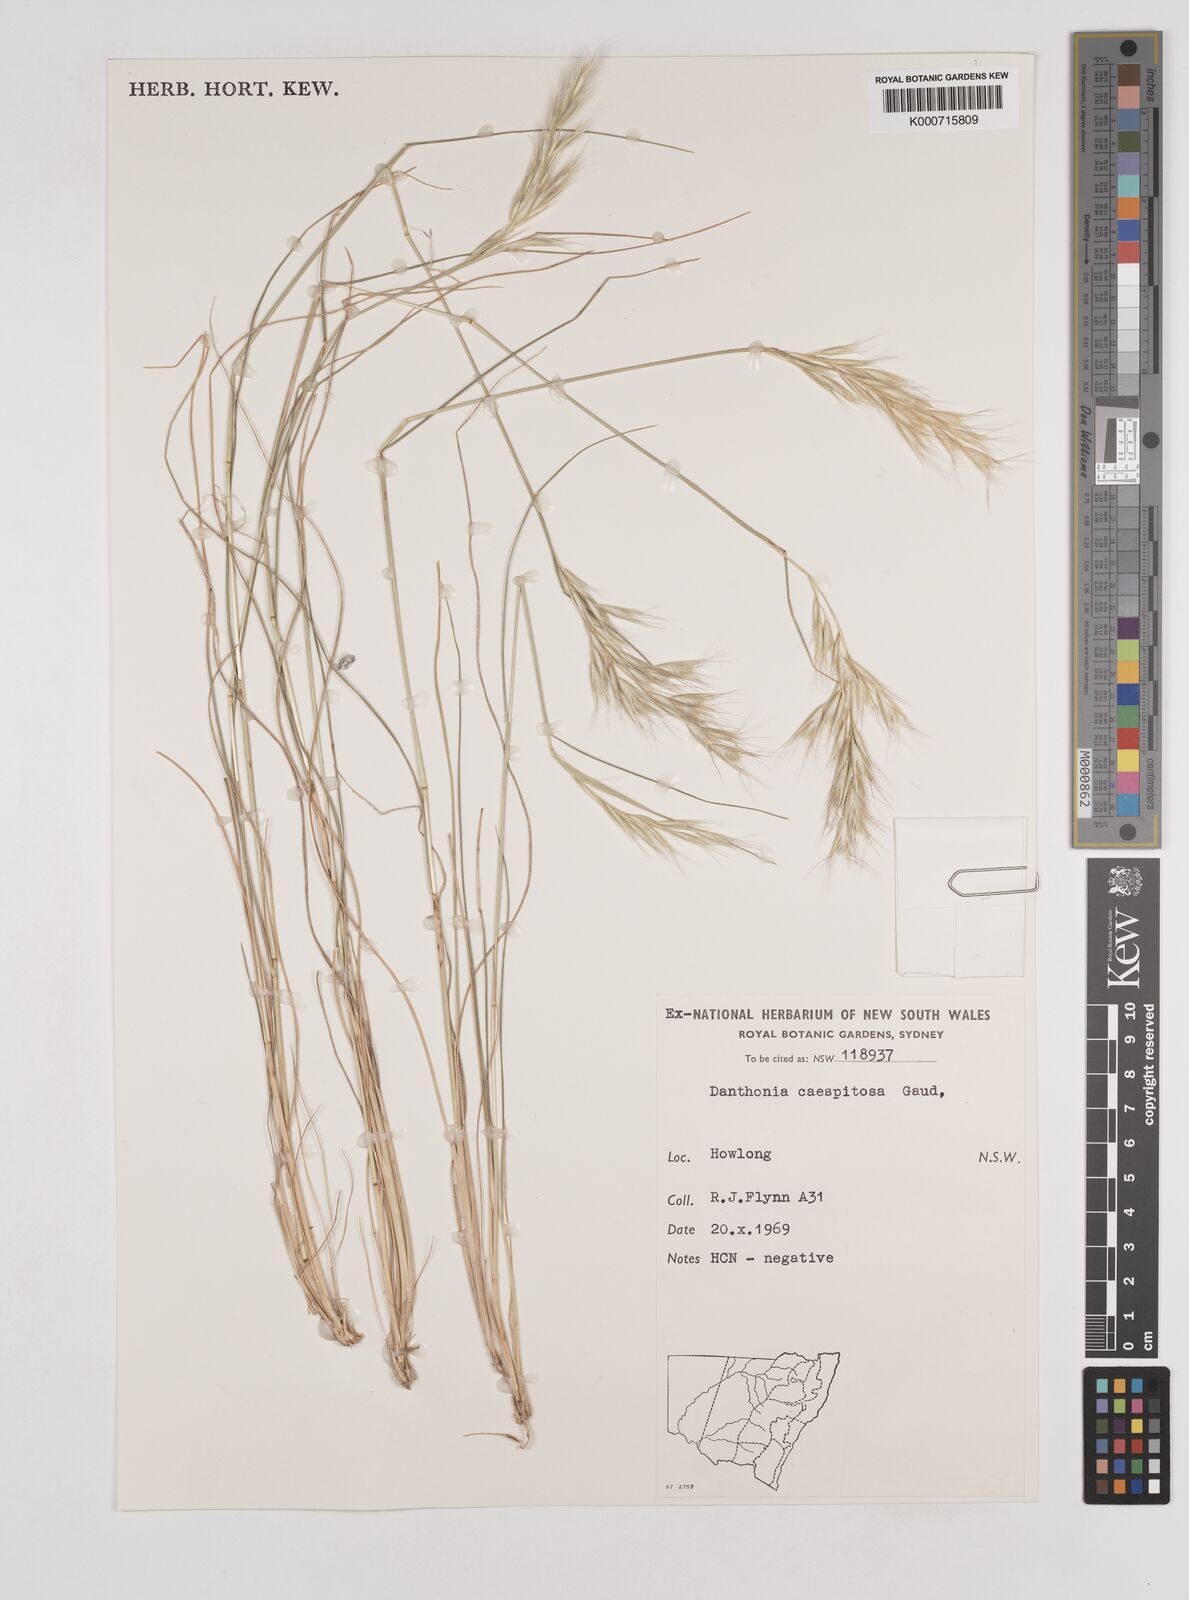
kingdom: Plantae
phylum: Tracheophyta
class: Liliopsida
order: Poales
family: Poaceae
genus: Rytidosperma
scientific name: Rytidosperma caespitosum
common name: Tufted wallaby grass
